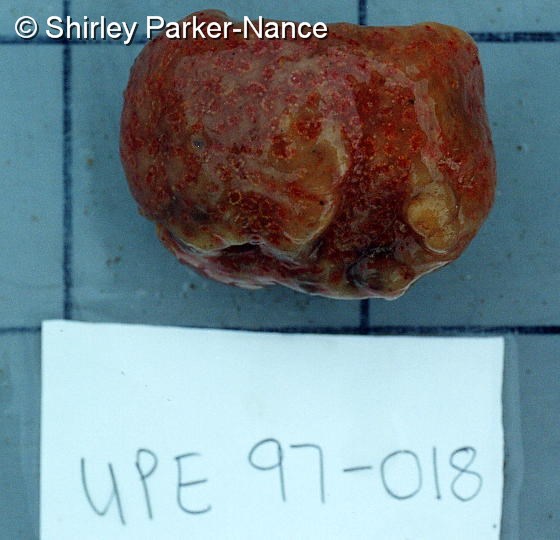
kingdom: Animalia
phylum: Chordata
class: Ascidiacea
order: Aplousobranchia
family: Polyclinidae
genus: Synoicum
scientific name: Synoicum
